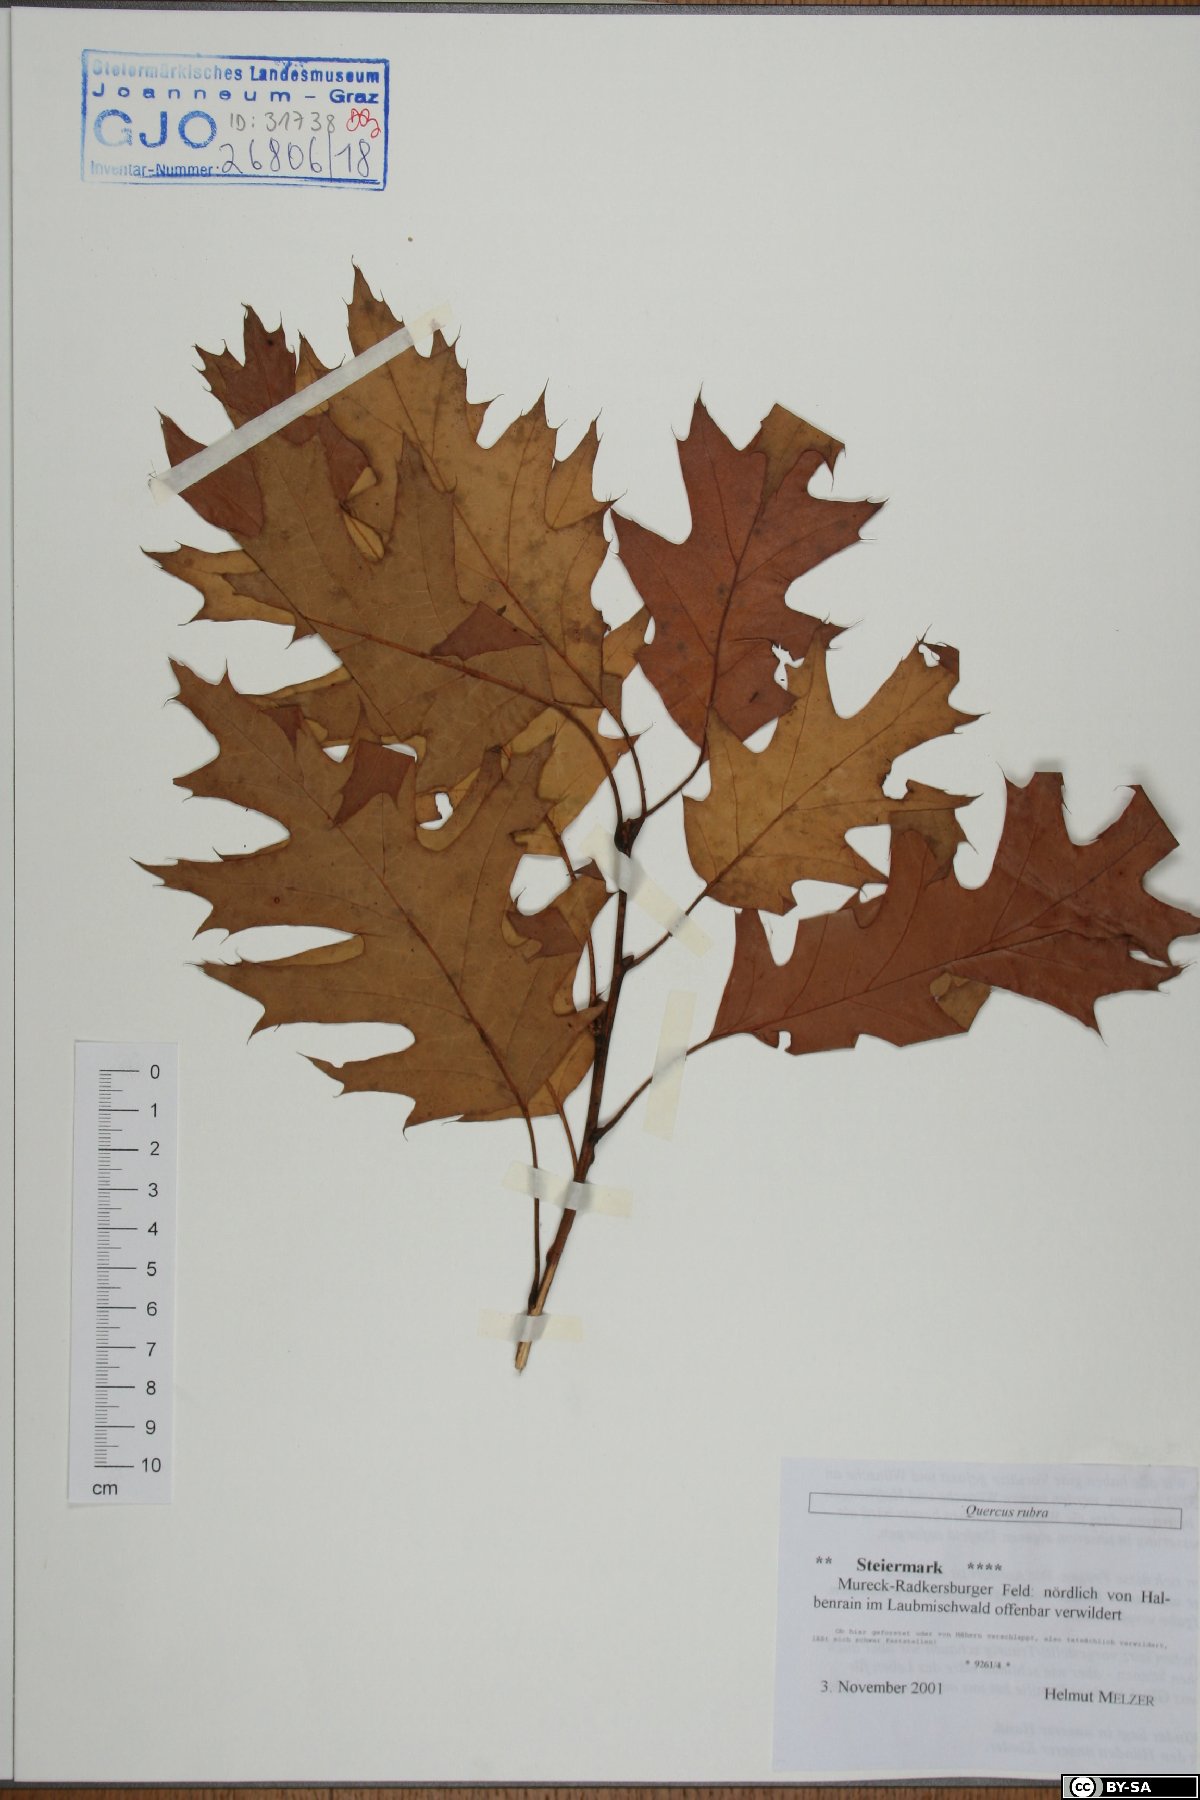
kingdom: Plantae
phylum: Tracheophyta
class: Magnoliopsida
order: Fagales
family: Fagaceae
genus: Quercus
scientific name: Quercus rubra
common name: Red oak
